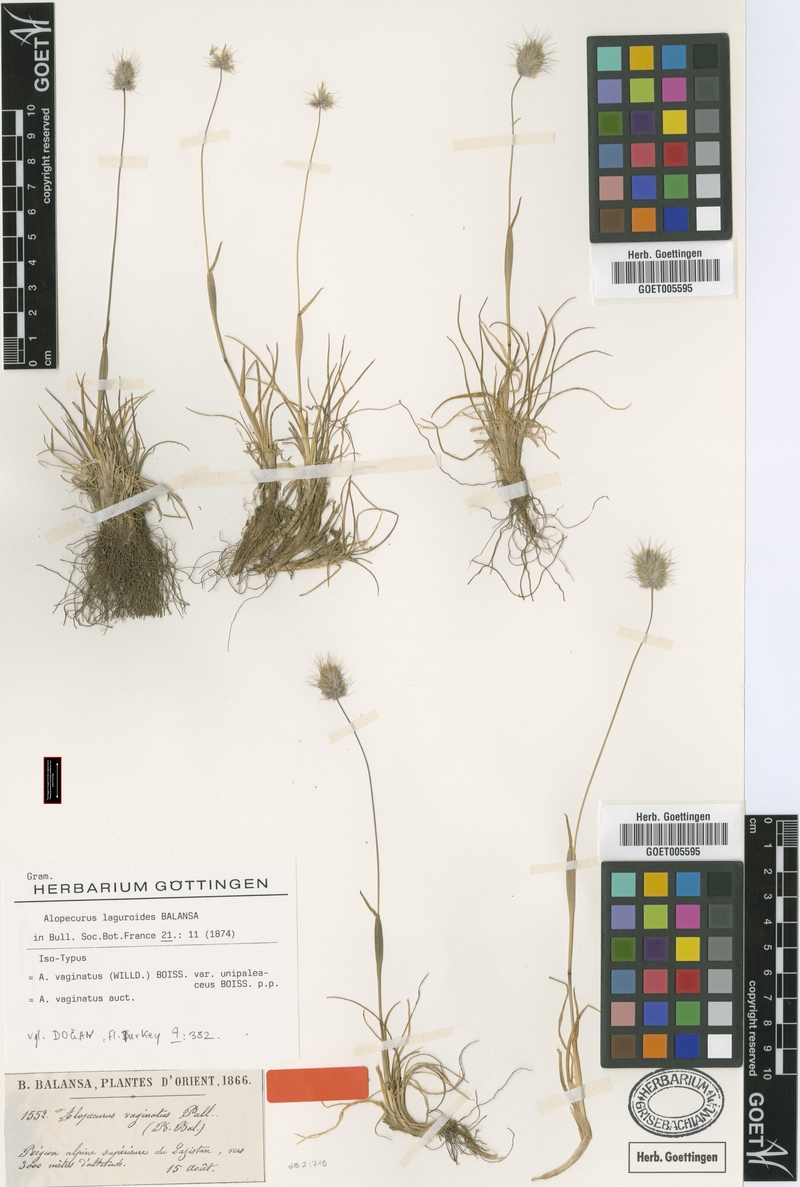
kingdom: Plantae
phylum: Tracheophyta
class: Liliopsida
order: Poales
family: Poaceae
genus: Alopecurus
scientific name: Alopecurus laguroides
